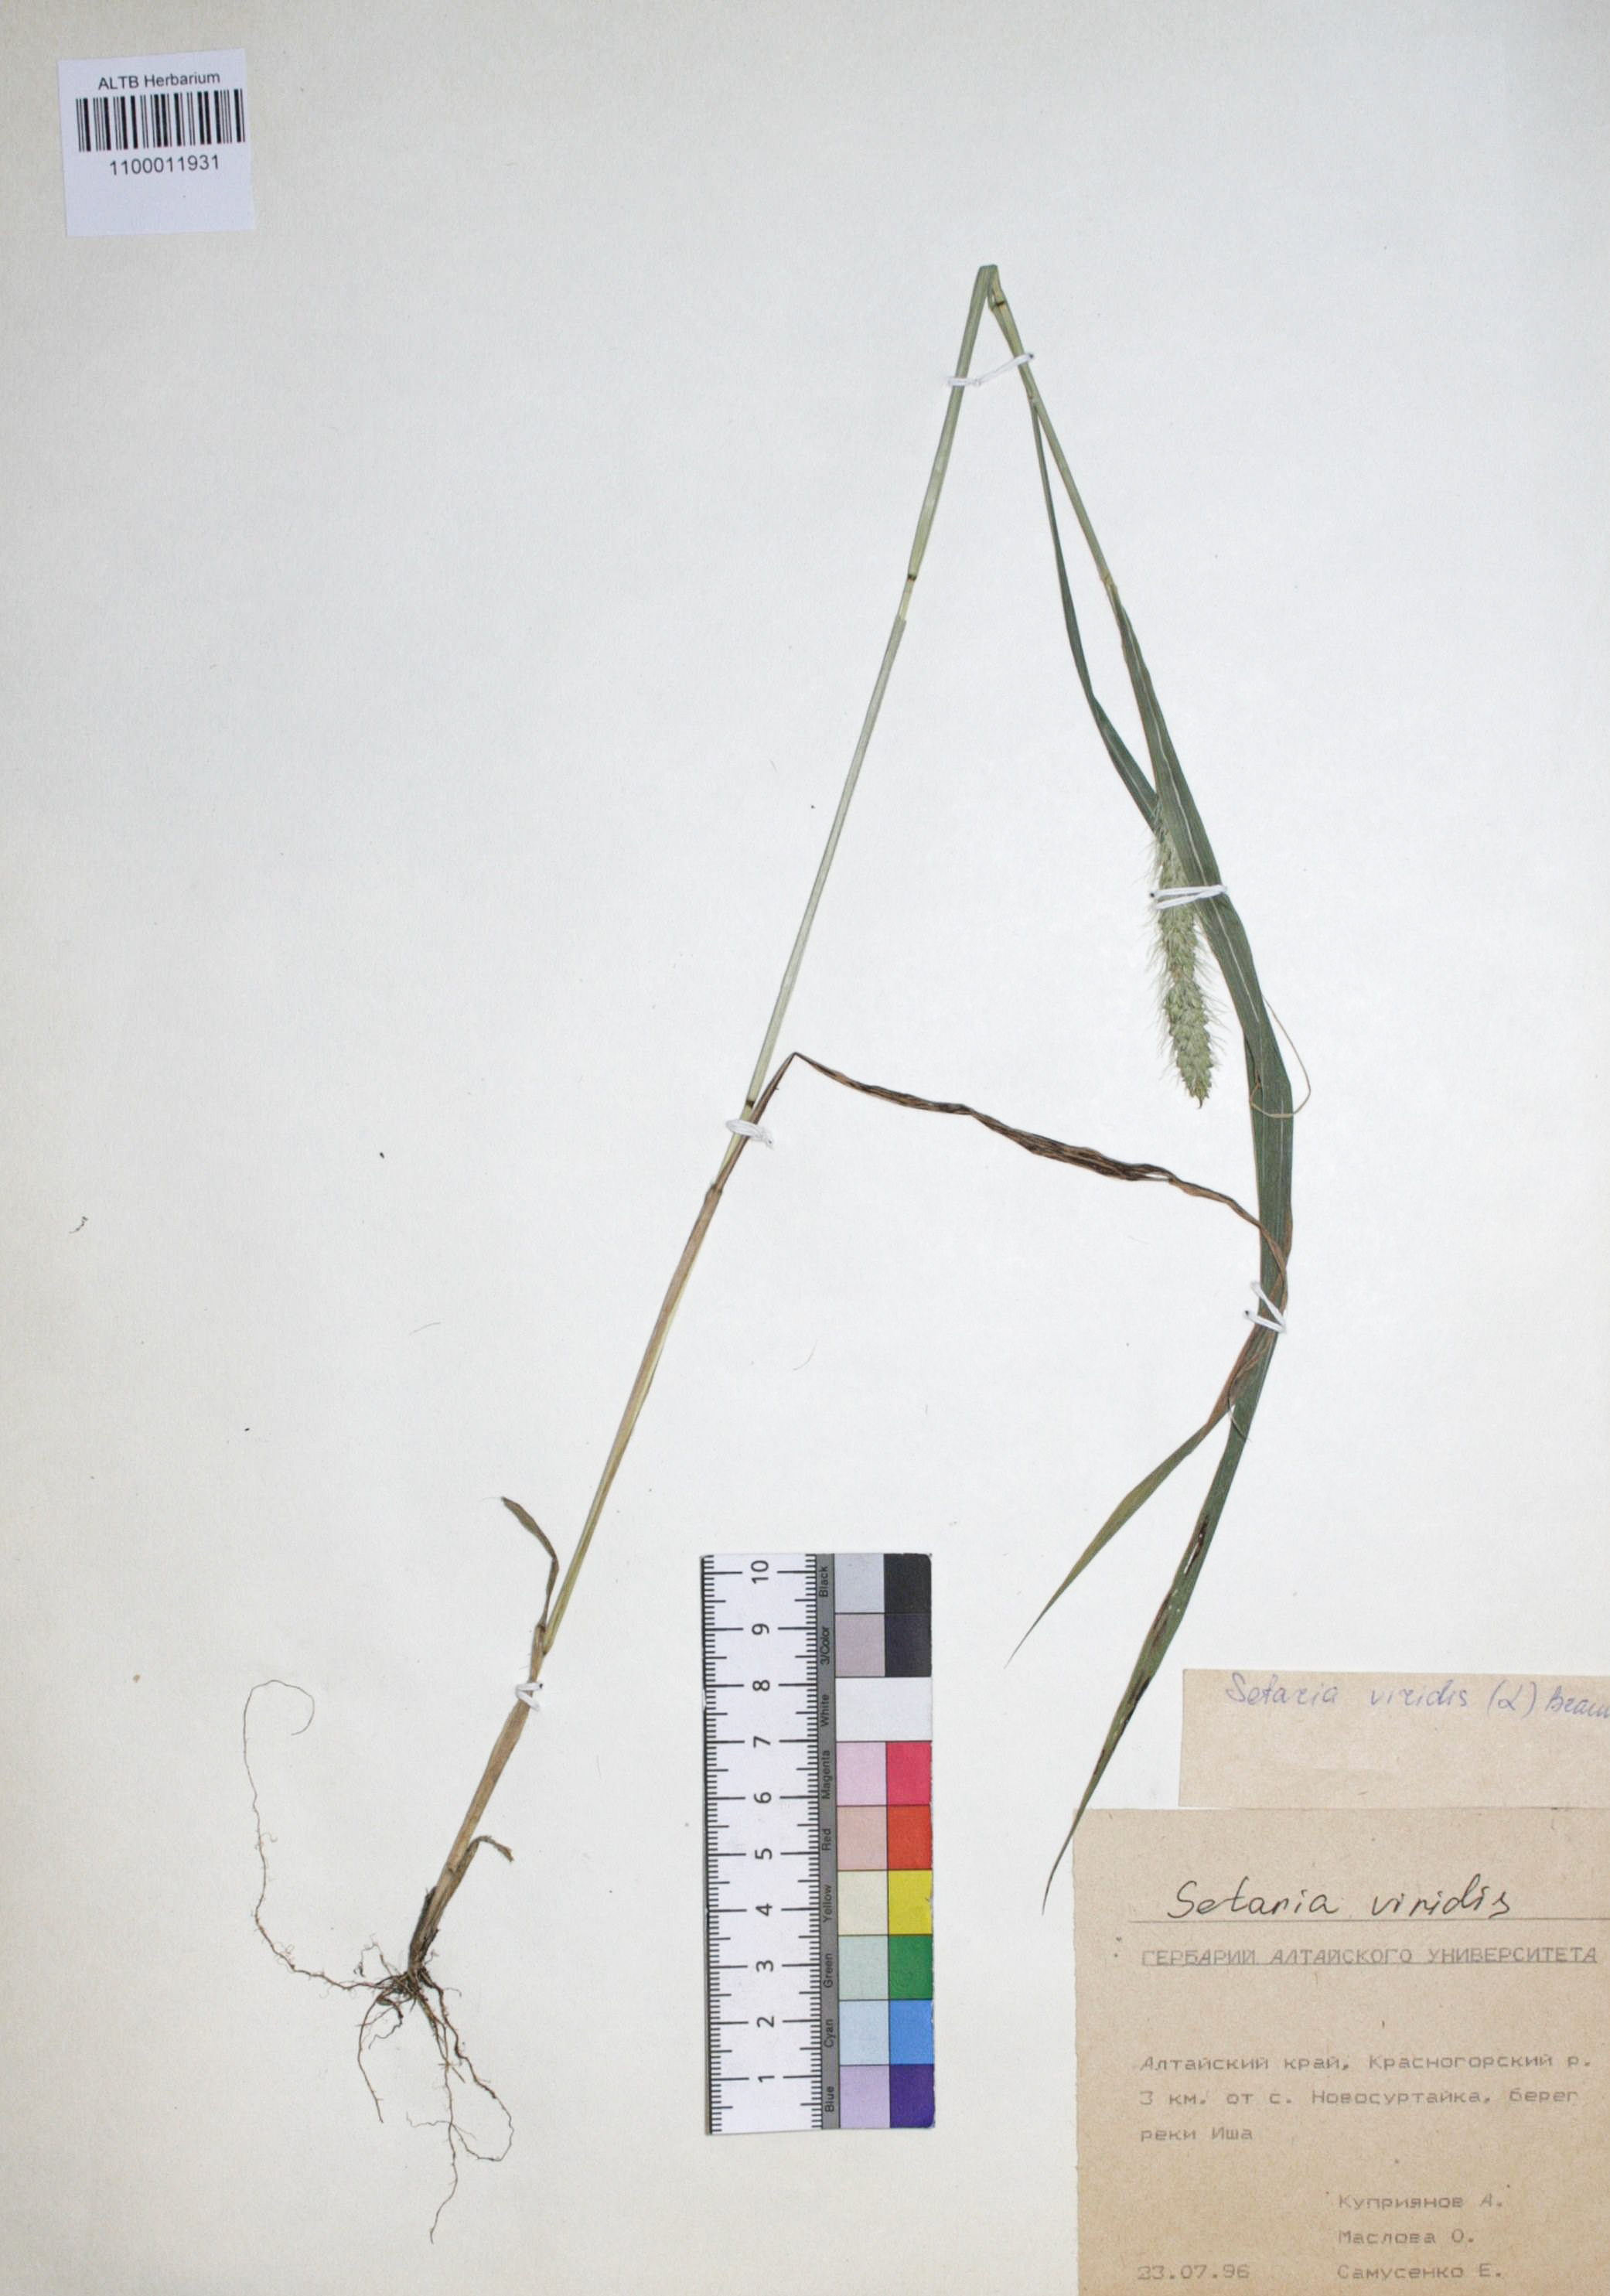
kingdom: Plantae
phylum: Tracheophyta
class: Liliopsida
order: Poales
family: Poaceae
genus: Setaria
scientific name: Setaria faberi
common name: Nodding bristle-grass
